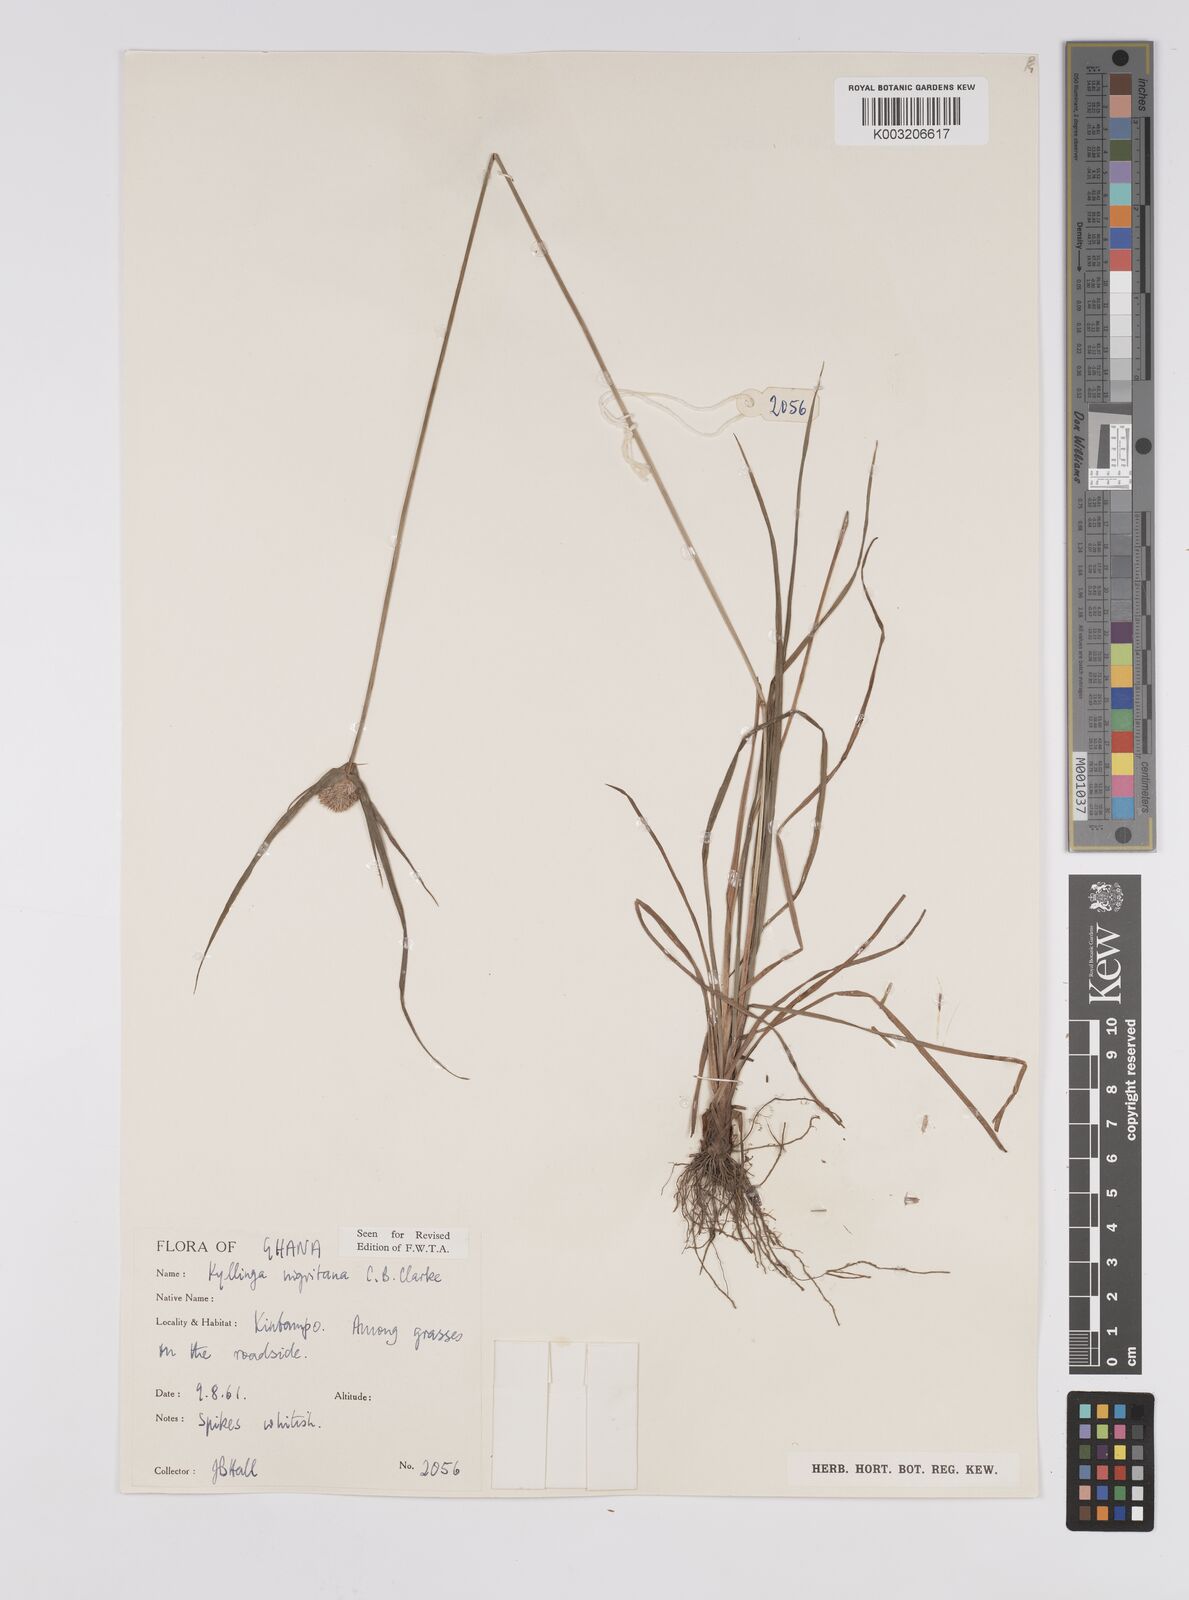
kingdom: Plantae
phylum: Tracheophyta
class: Liliopsida
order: Poales
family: Cyperaceae
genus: Cyperus
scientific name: Cyperus alatus
